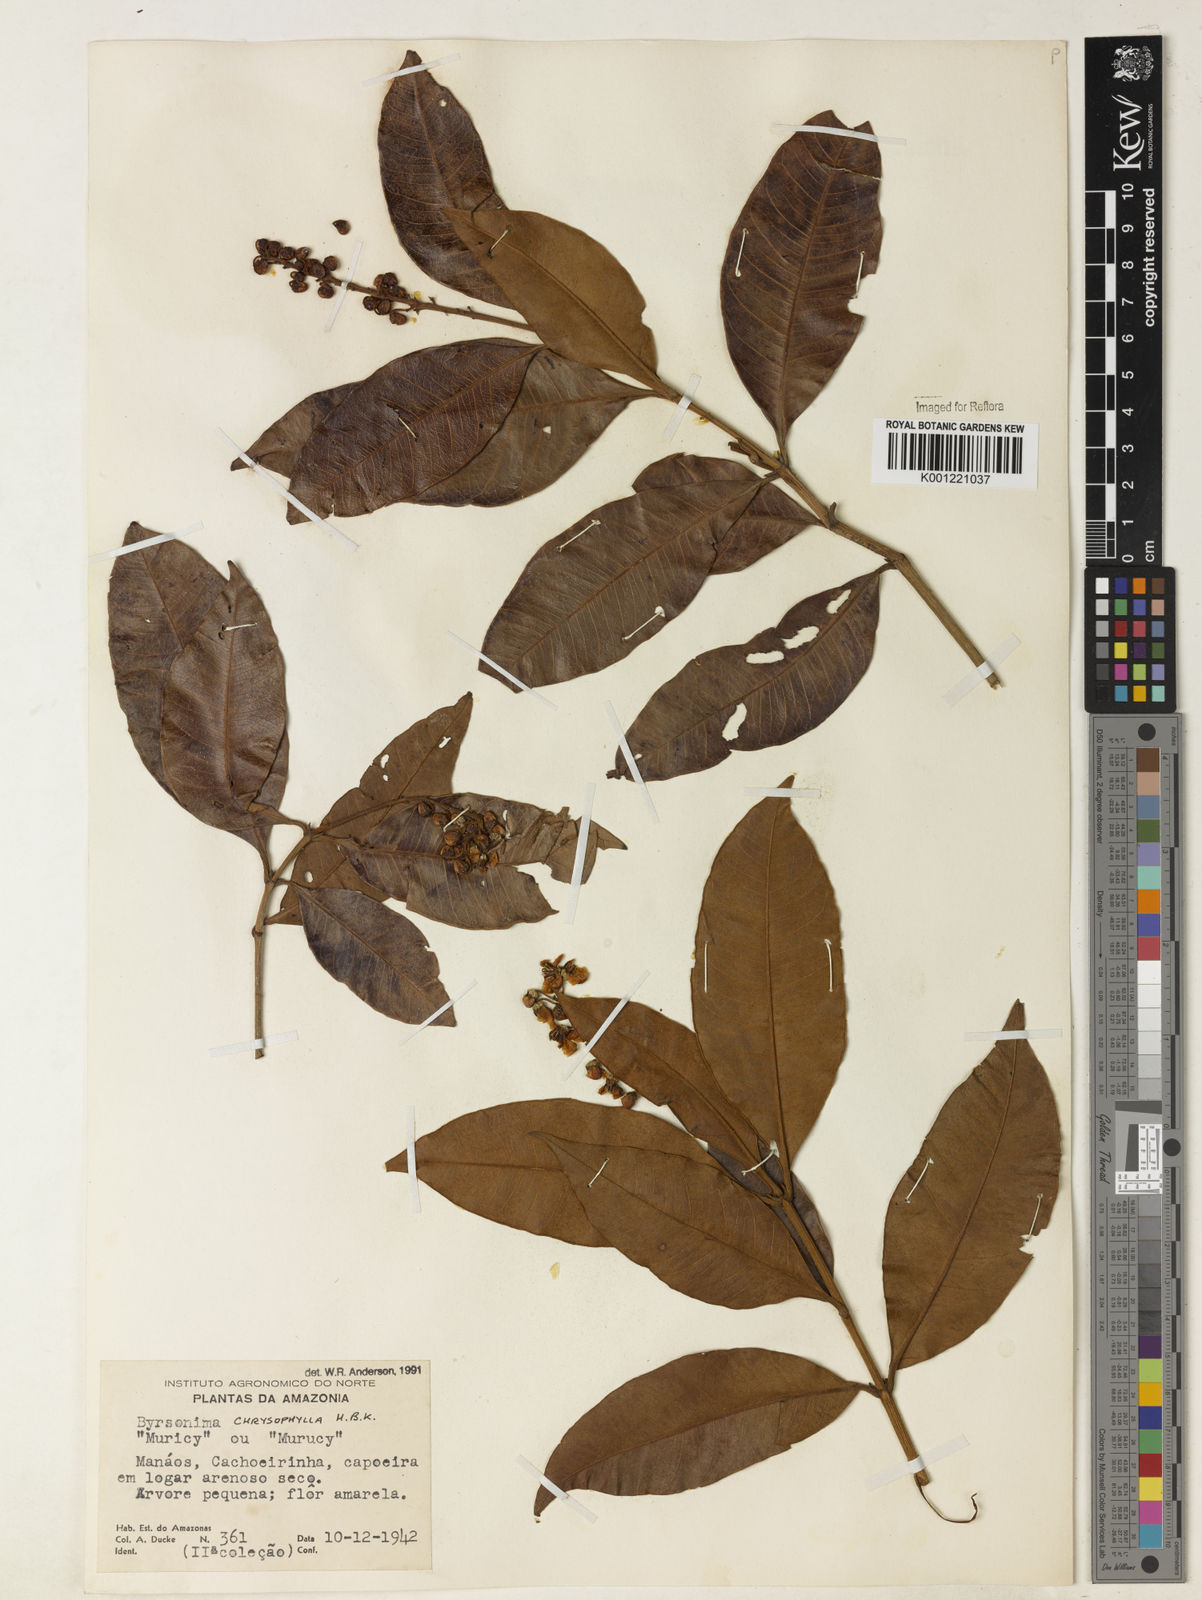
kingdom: Plantae
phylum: Tracheophyta
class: Magnoliopsida
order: Malpighiales
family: Malpighiaceae
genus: Byrsonima
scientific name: Byrsonima chrysophylla
